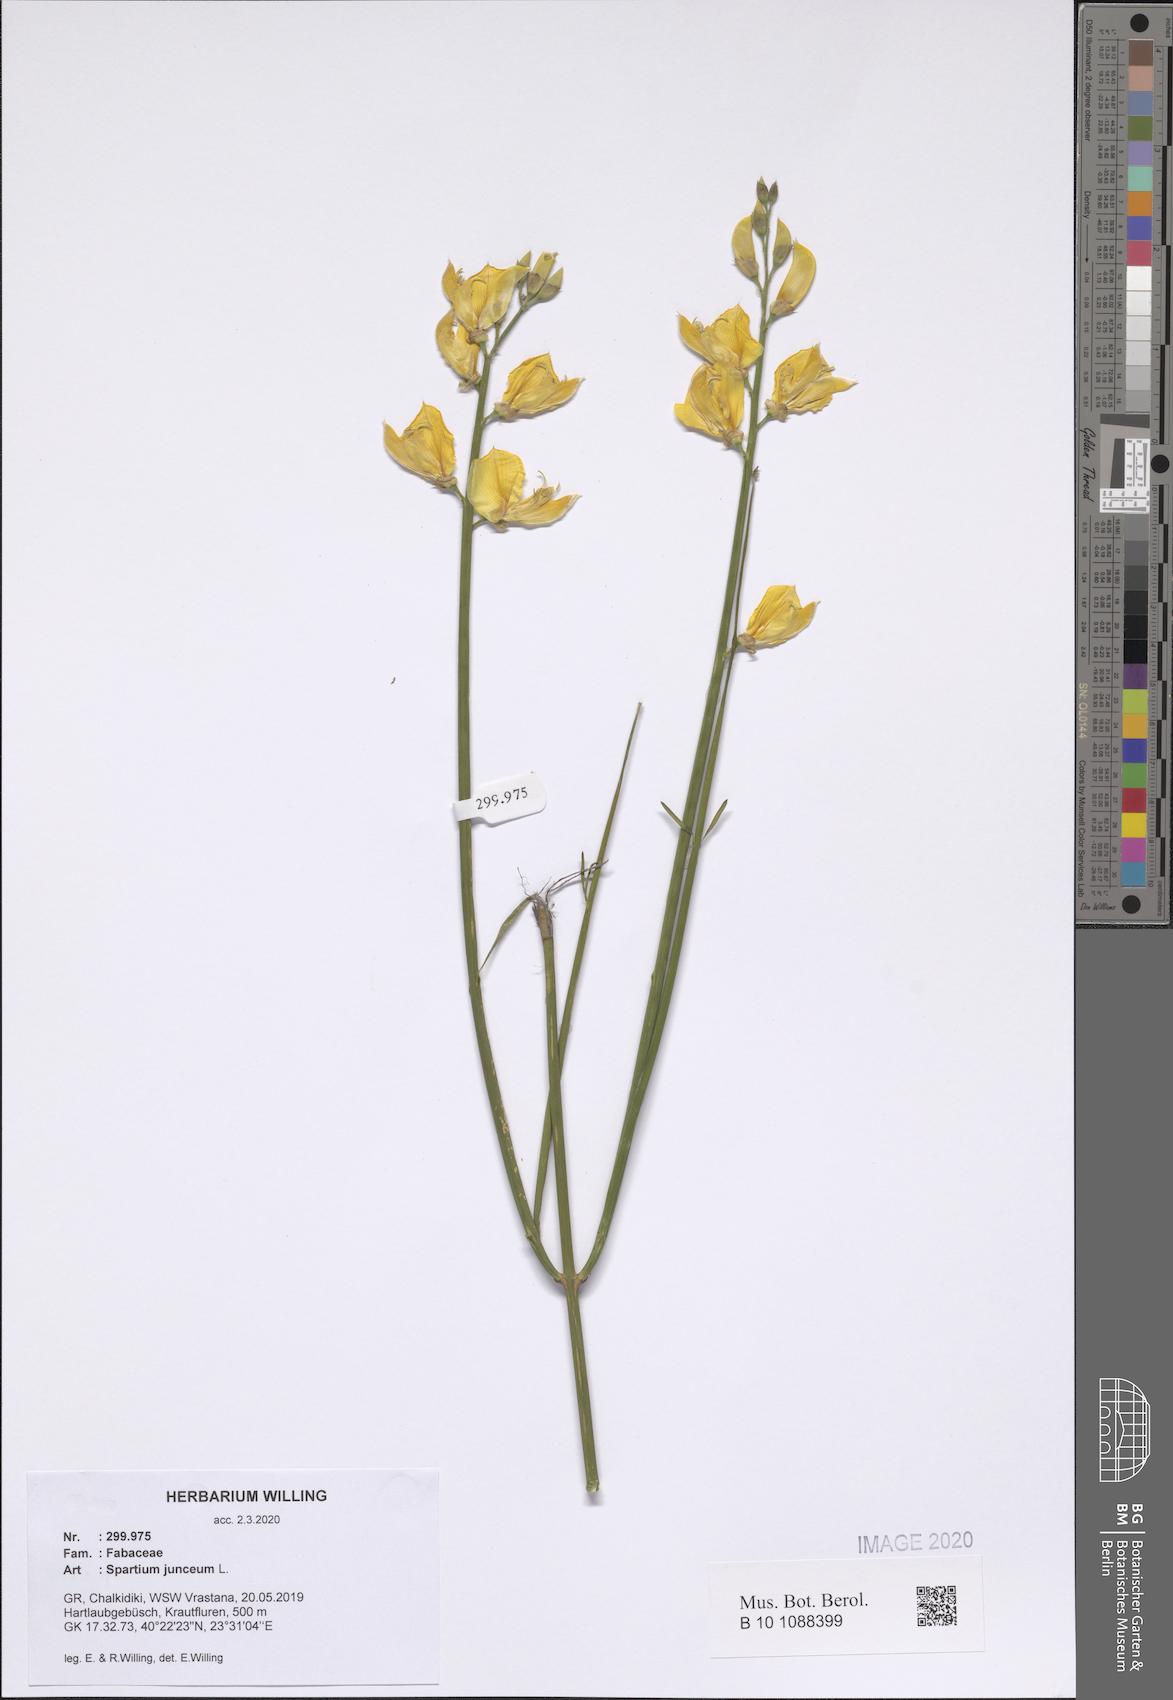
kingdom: Plantae
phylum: Tracheophyta
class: Magnoliopsida
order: Fabales
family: Fabaceae
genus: Spartium
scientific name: Spartium junceum
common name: Spanish broom
